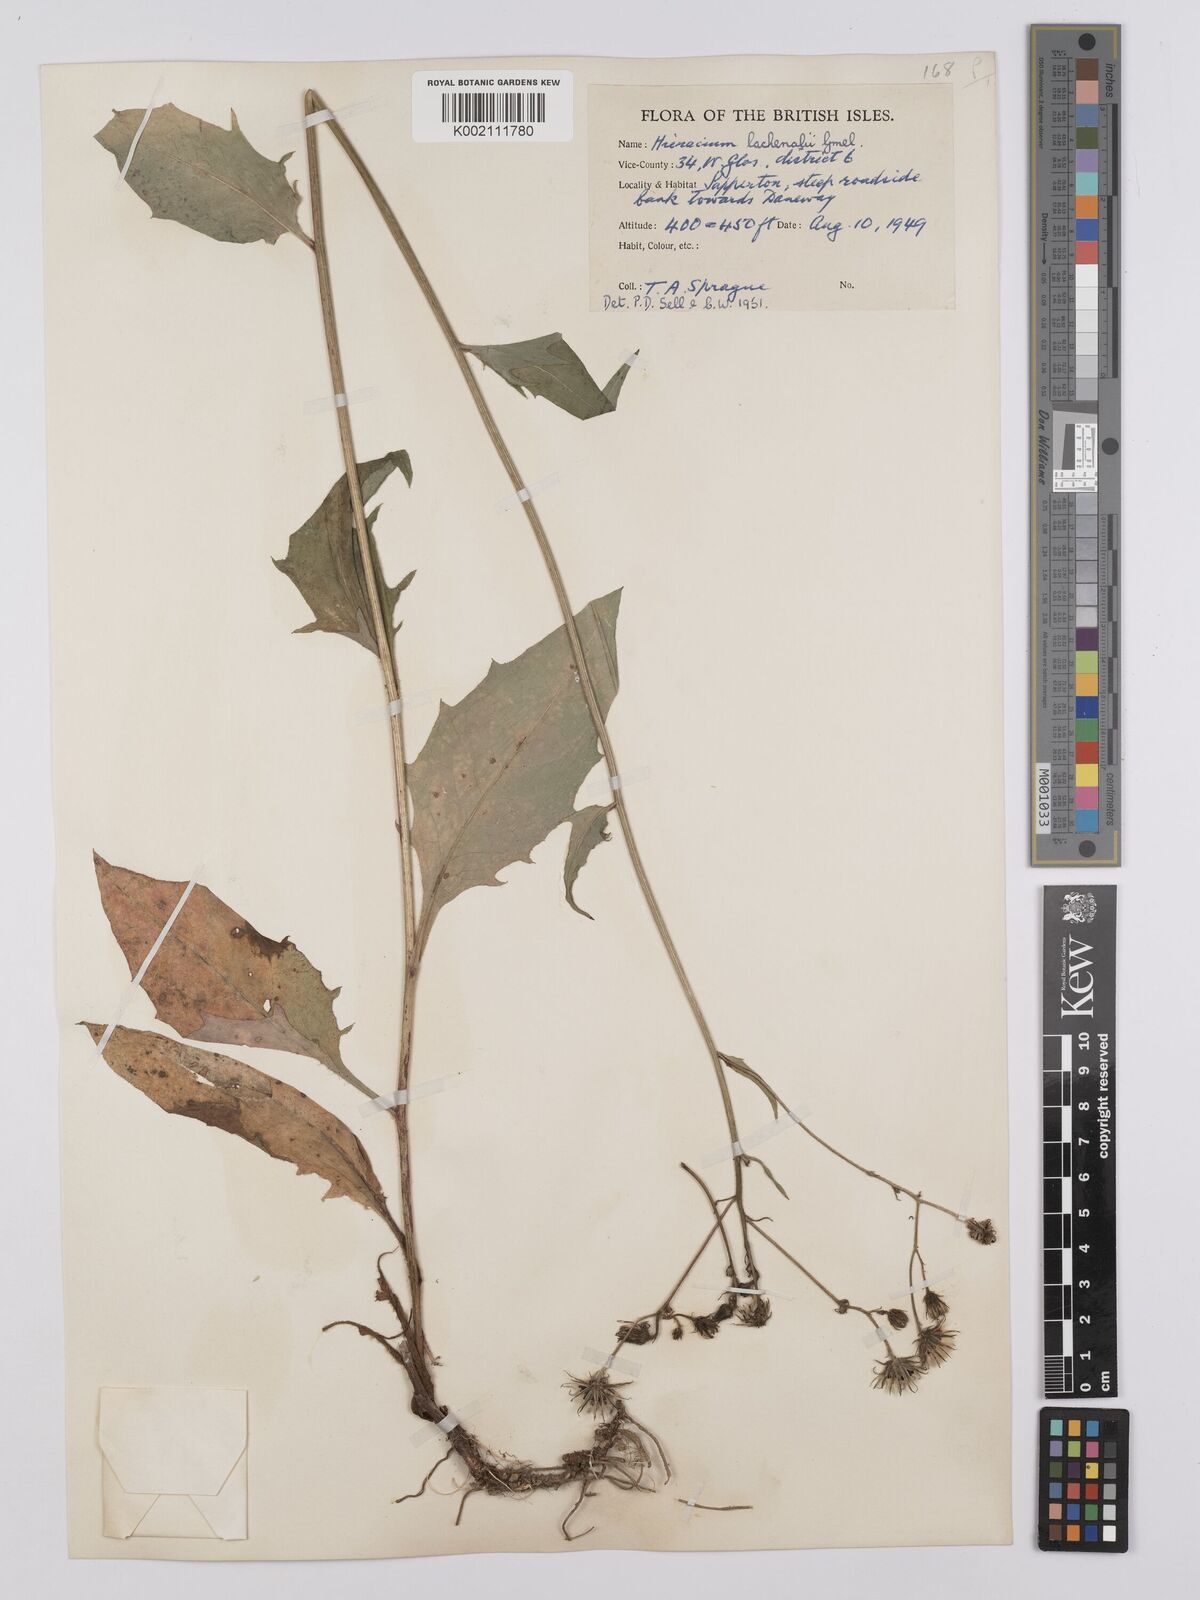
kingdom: Plantae
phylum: Tracheophyta
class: Magnoliopsida
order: Asterales
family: Asteraceae
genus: Hieracium
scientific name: Hieracium lachenalii
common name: Common hawkweed
